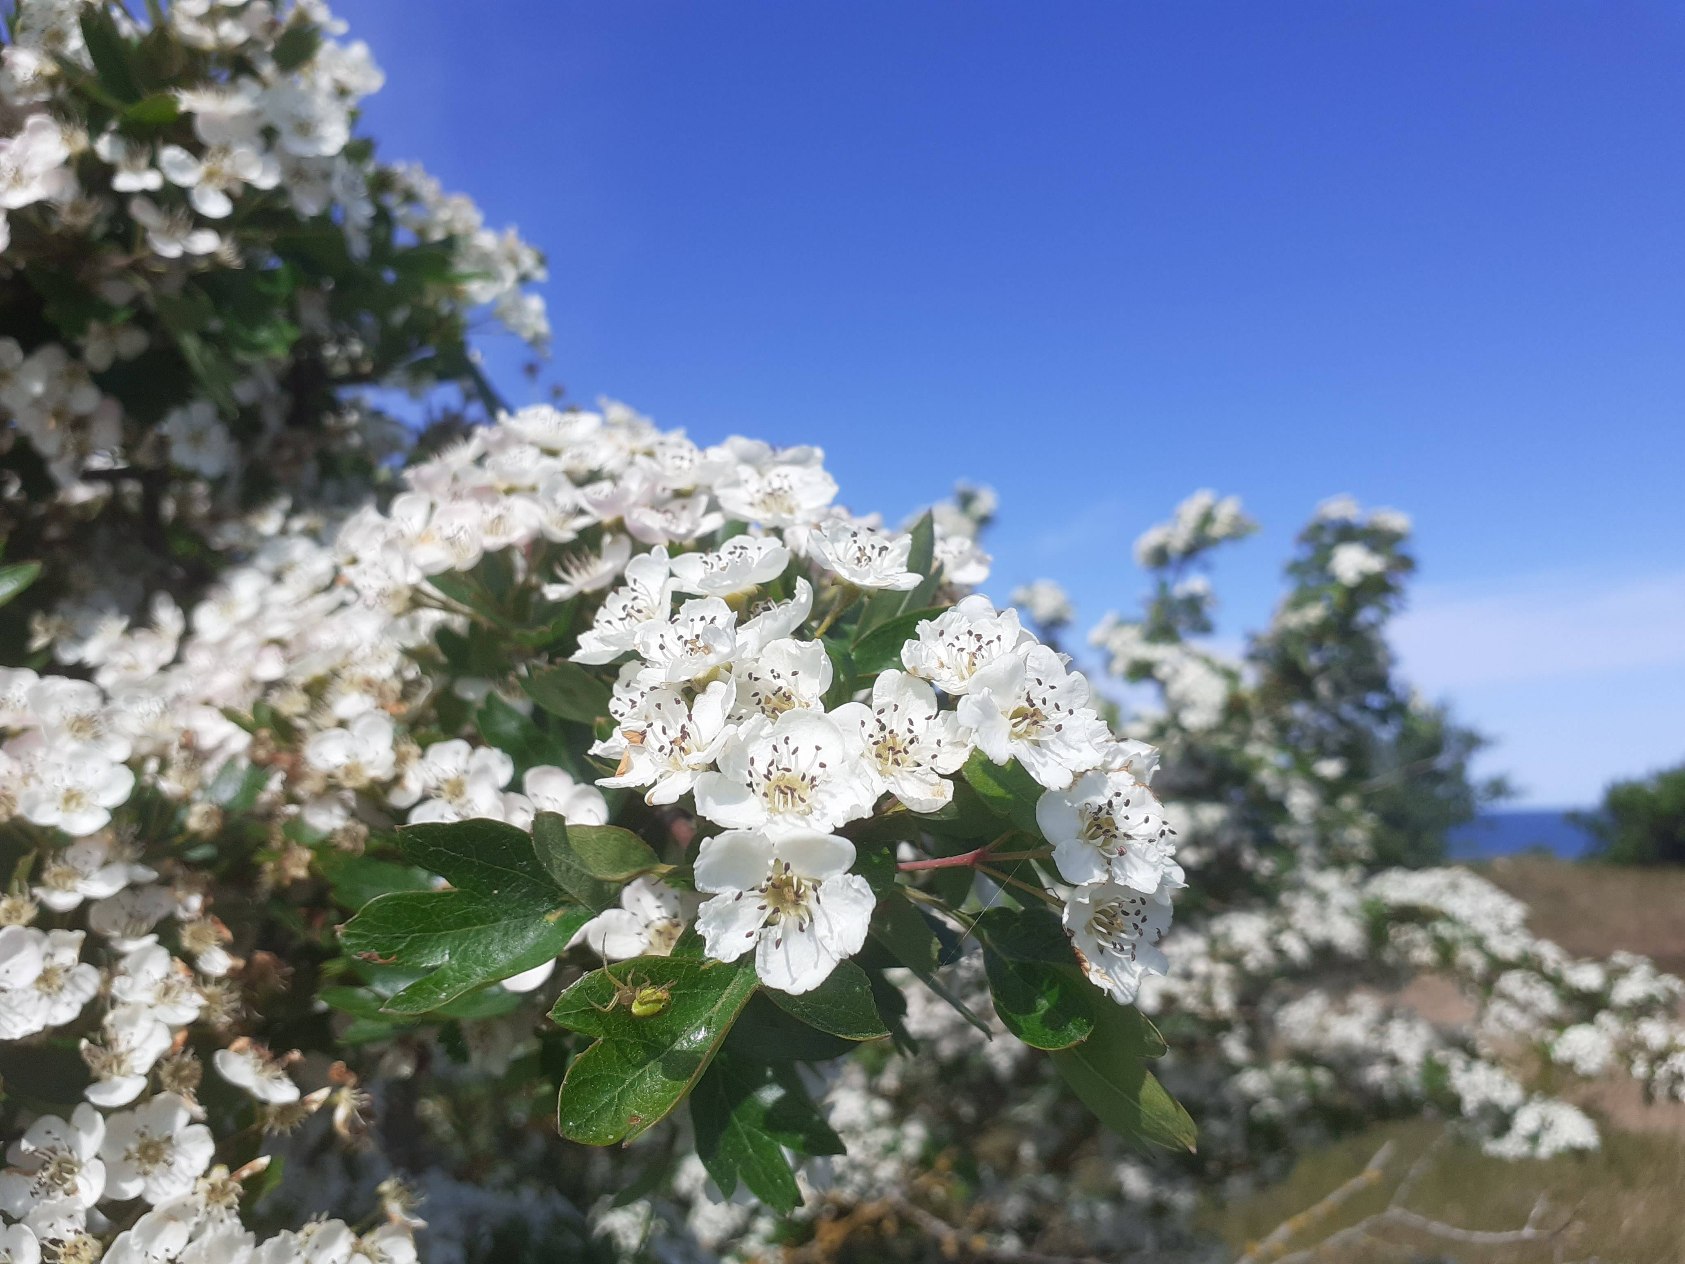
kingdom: Plantae
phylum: Tracheophyta
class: Magnoliopsida
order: Rosales
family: Rosaceae
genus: Crataegus
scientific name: Crataegus monogyna
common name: Engriflet hvidtjørn
